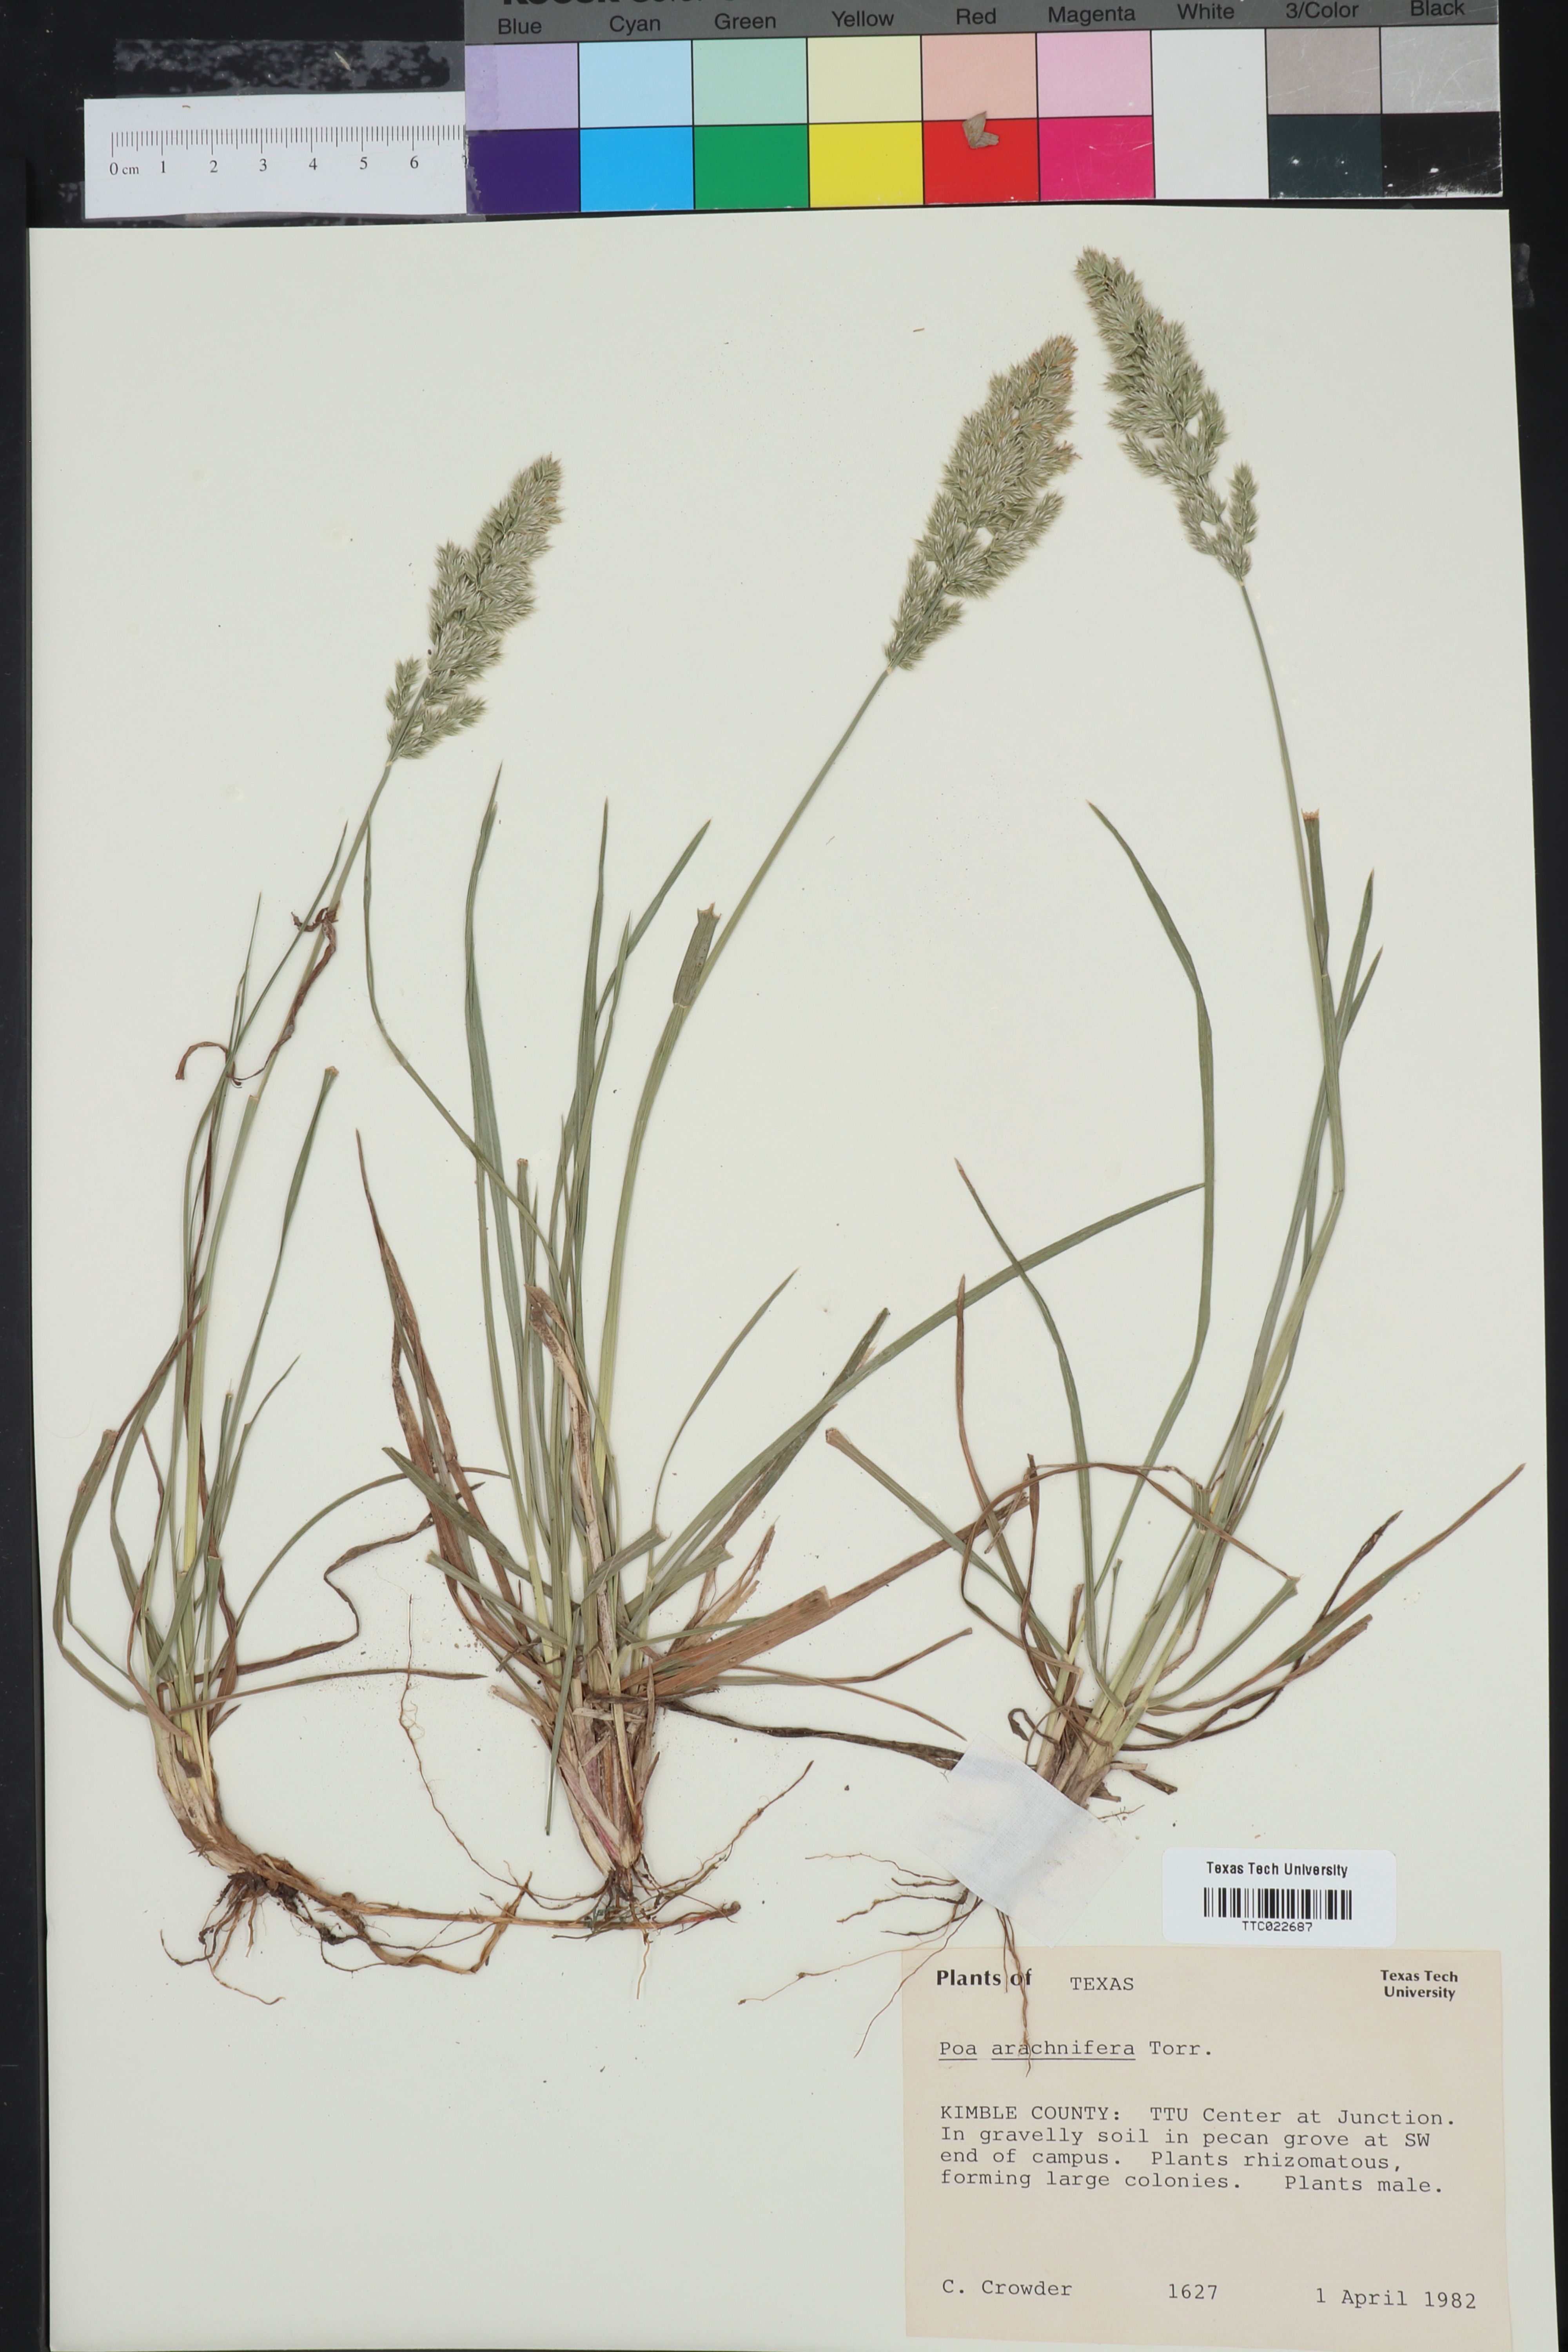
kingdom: Plantae
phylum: Tracheophyta
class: Liliopsida
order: Poales
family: Poaceae
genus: Poa
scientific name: Poa arachnifera
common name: Texas bluegrass
